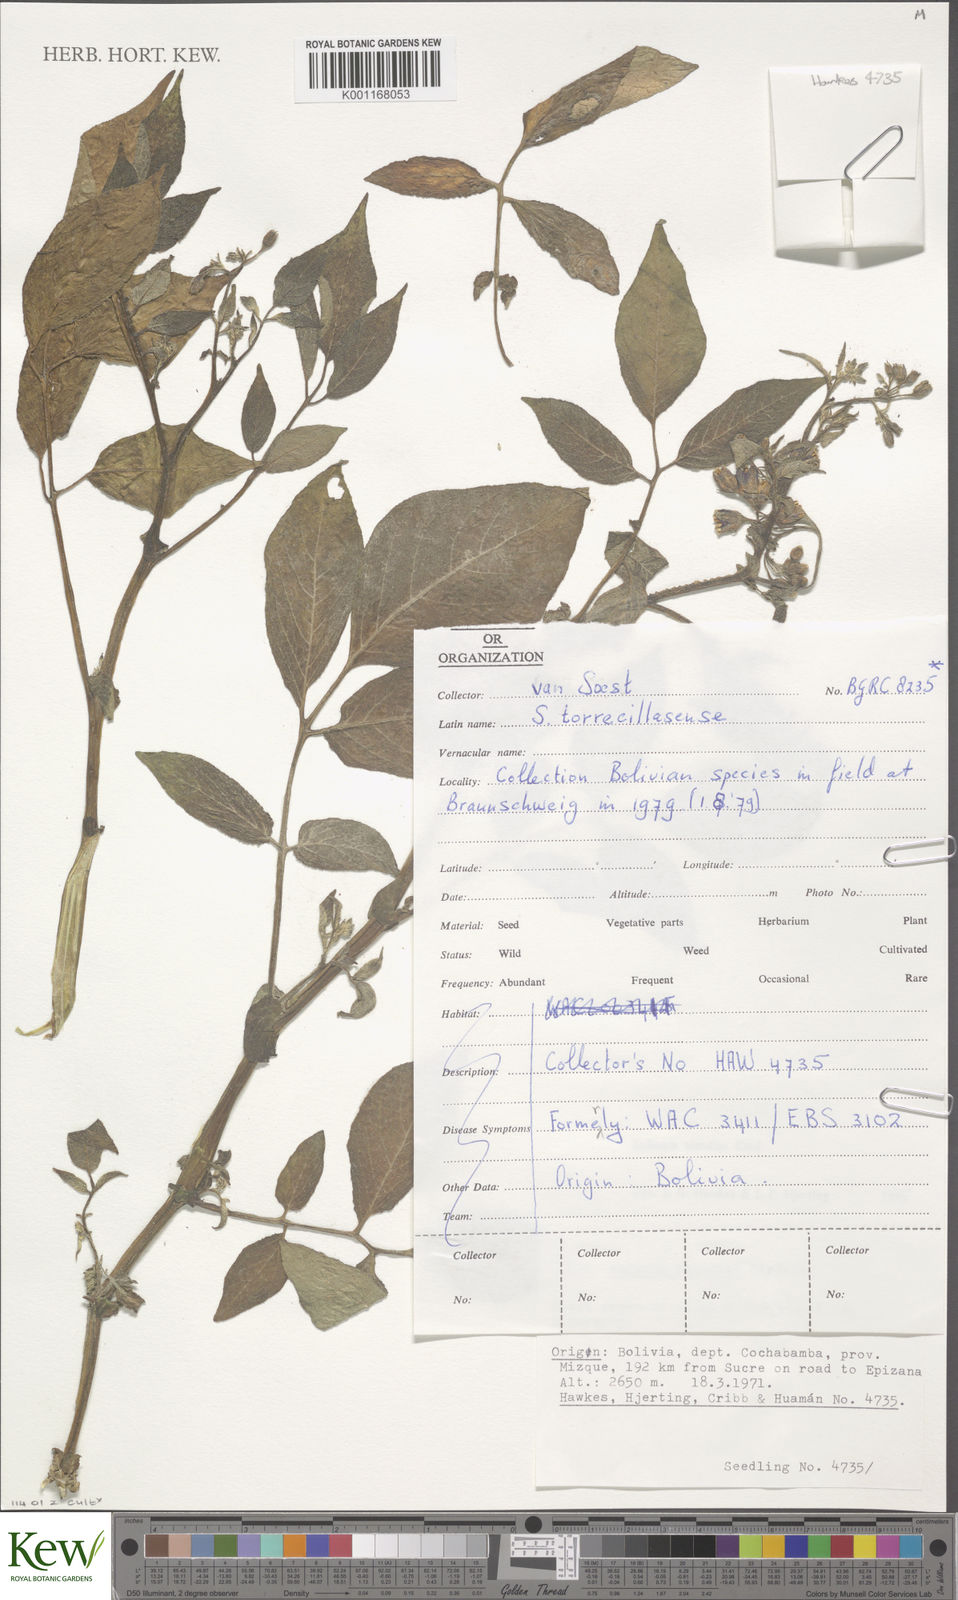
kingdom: Plantae
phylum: Tracheophyta
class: Magnoliopsida
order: Solanales
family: Solanaceae
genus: Solanum
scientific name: Solanum
